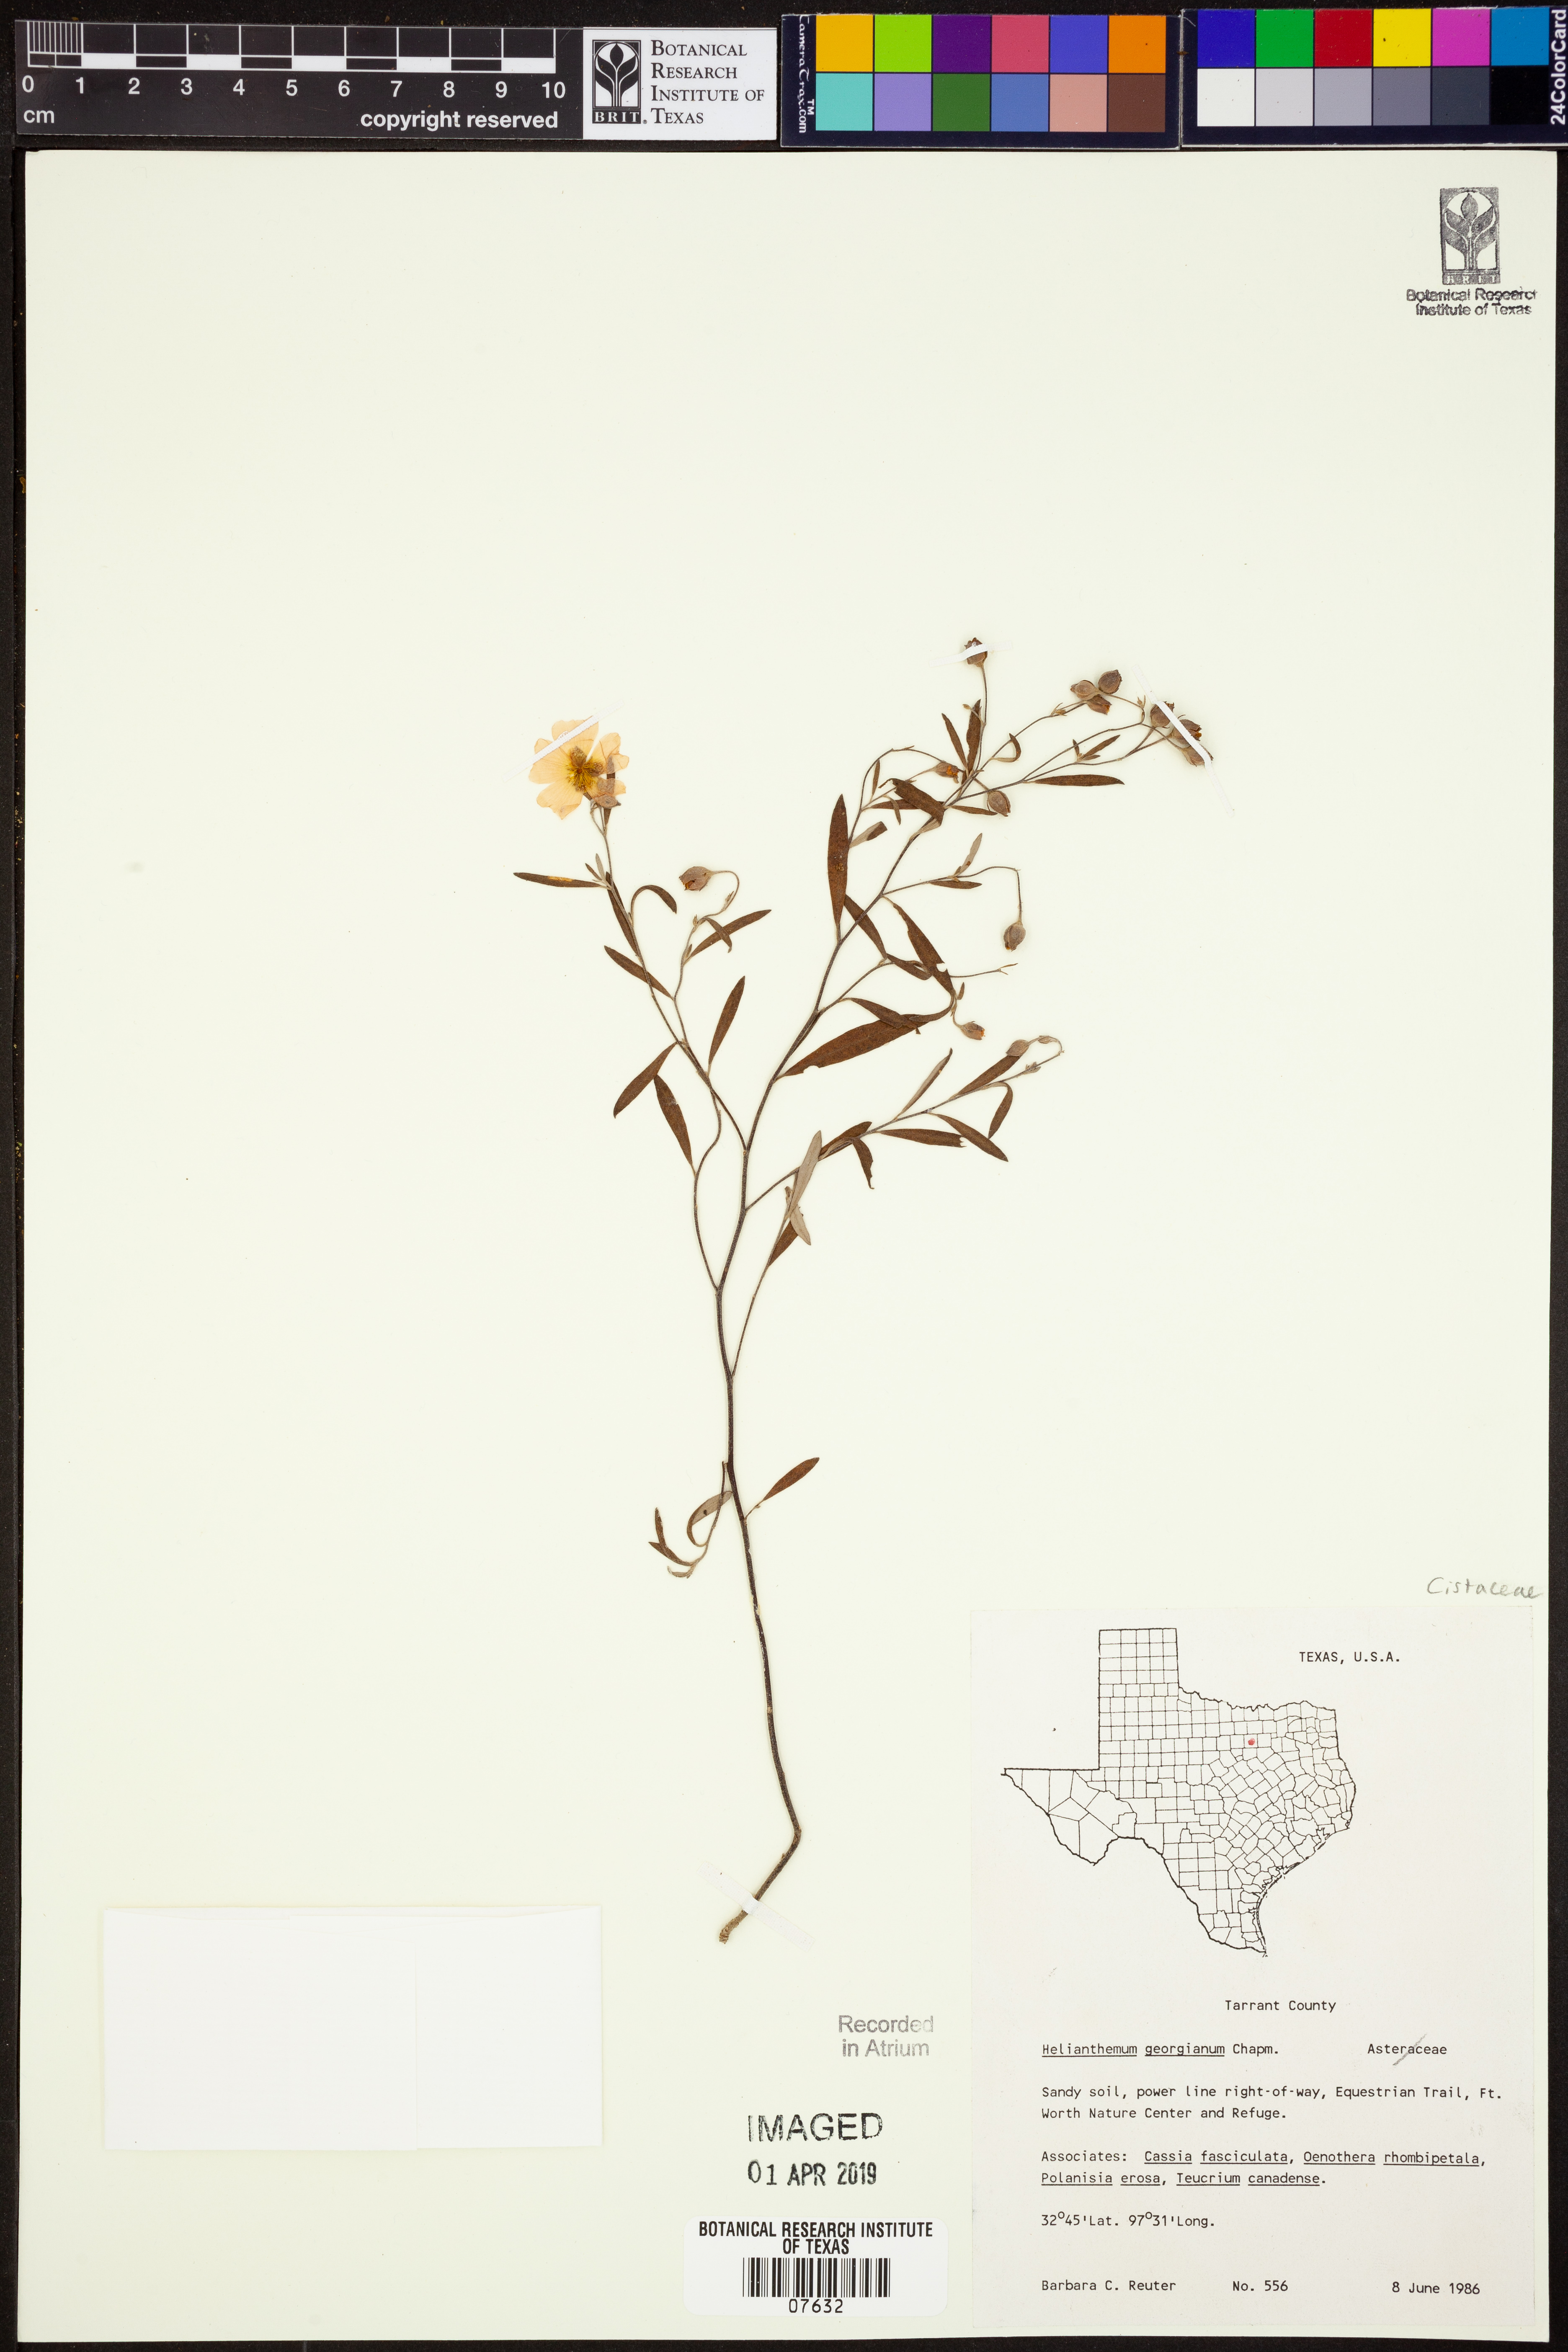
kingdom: Plantae
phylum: Tracheophyta
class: Magnoliopsida
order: Malvales
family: Cistaceae
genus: Crocanthemum
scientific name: Crocanthemum georgianum
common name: Georgia frostweed
